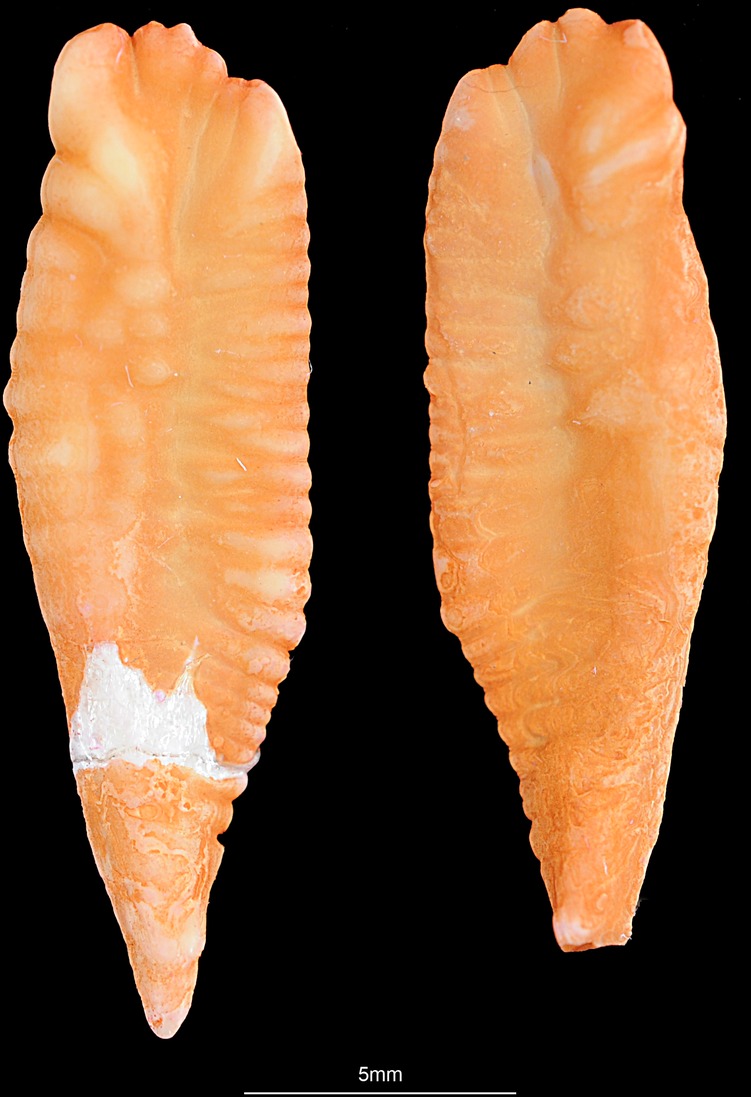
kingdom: Animalia
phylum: Chordata
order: Gadiformes
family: Gadidae
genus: Merlangius
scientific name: Merlangius merlangus
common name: Whiting
